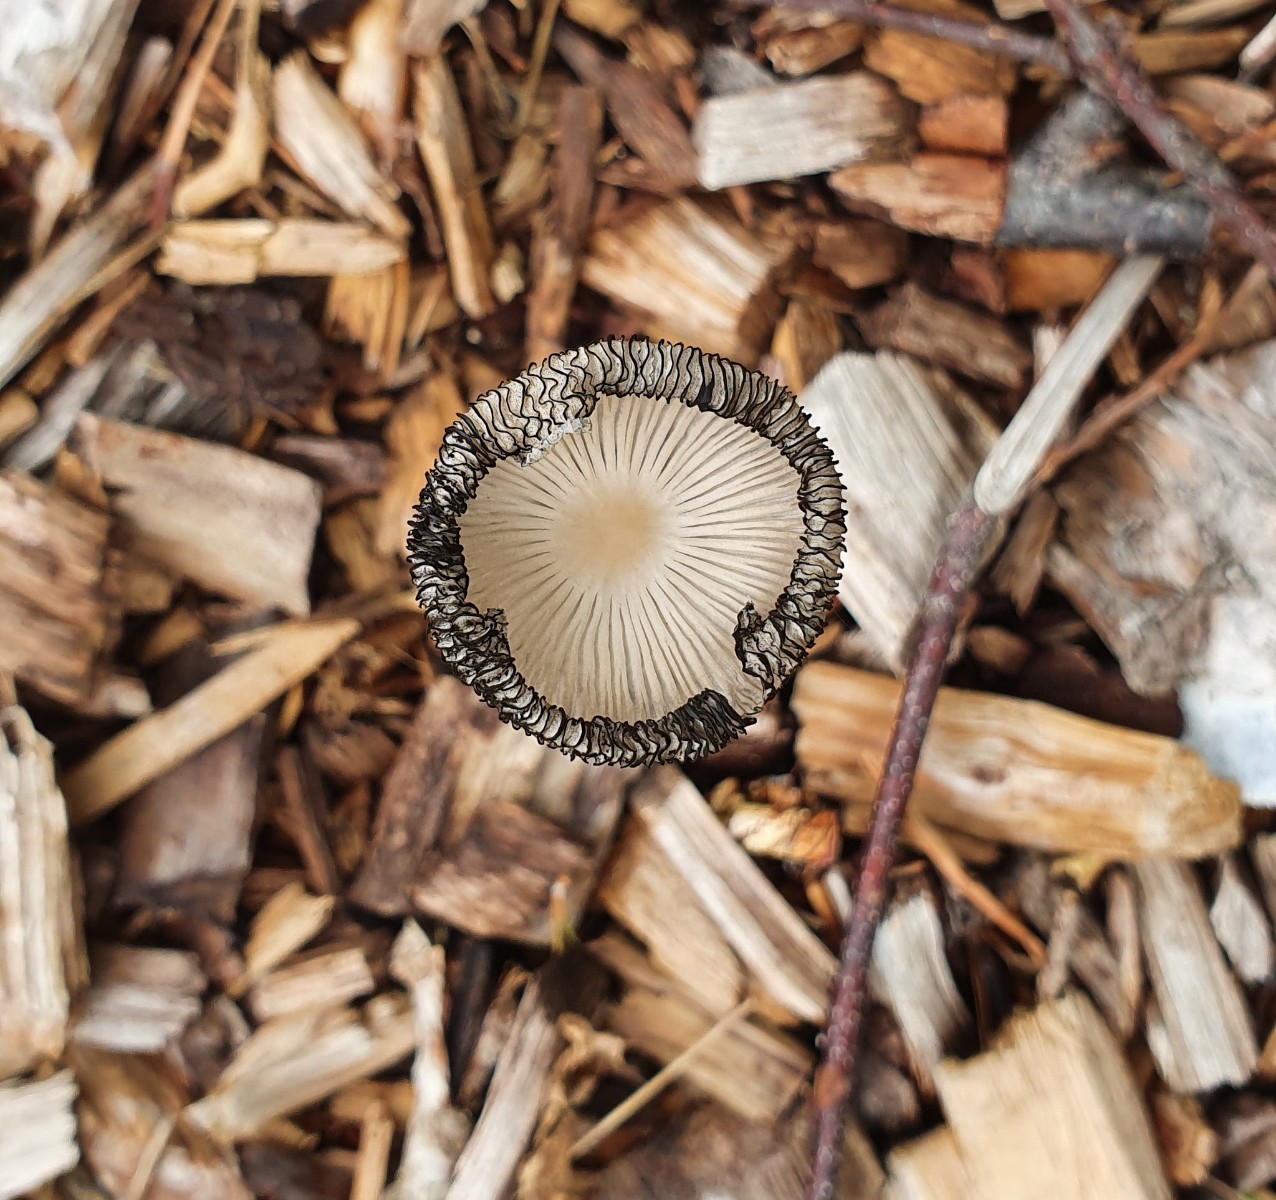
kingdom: Fungi
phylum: Basidiomycota
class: Agaricomycetes
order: Agaricales
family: Psathyrellaceae
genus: Coprinopsis
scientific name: Coprinopsis lagopus
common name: dunstokket blækhat
